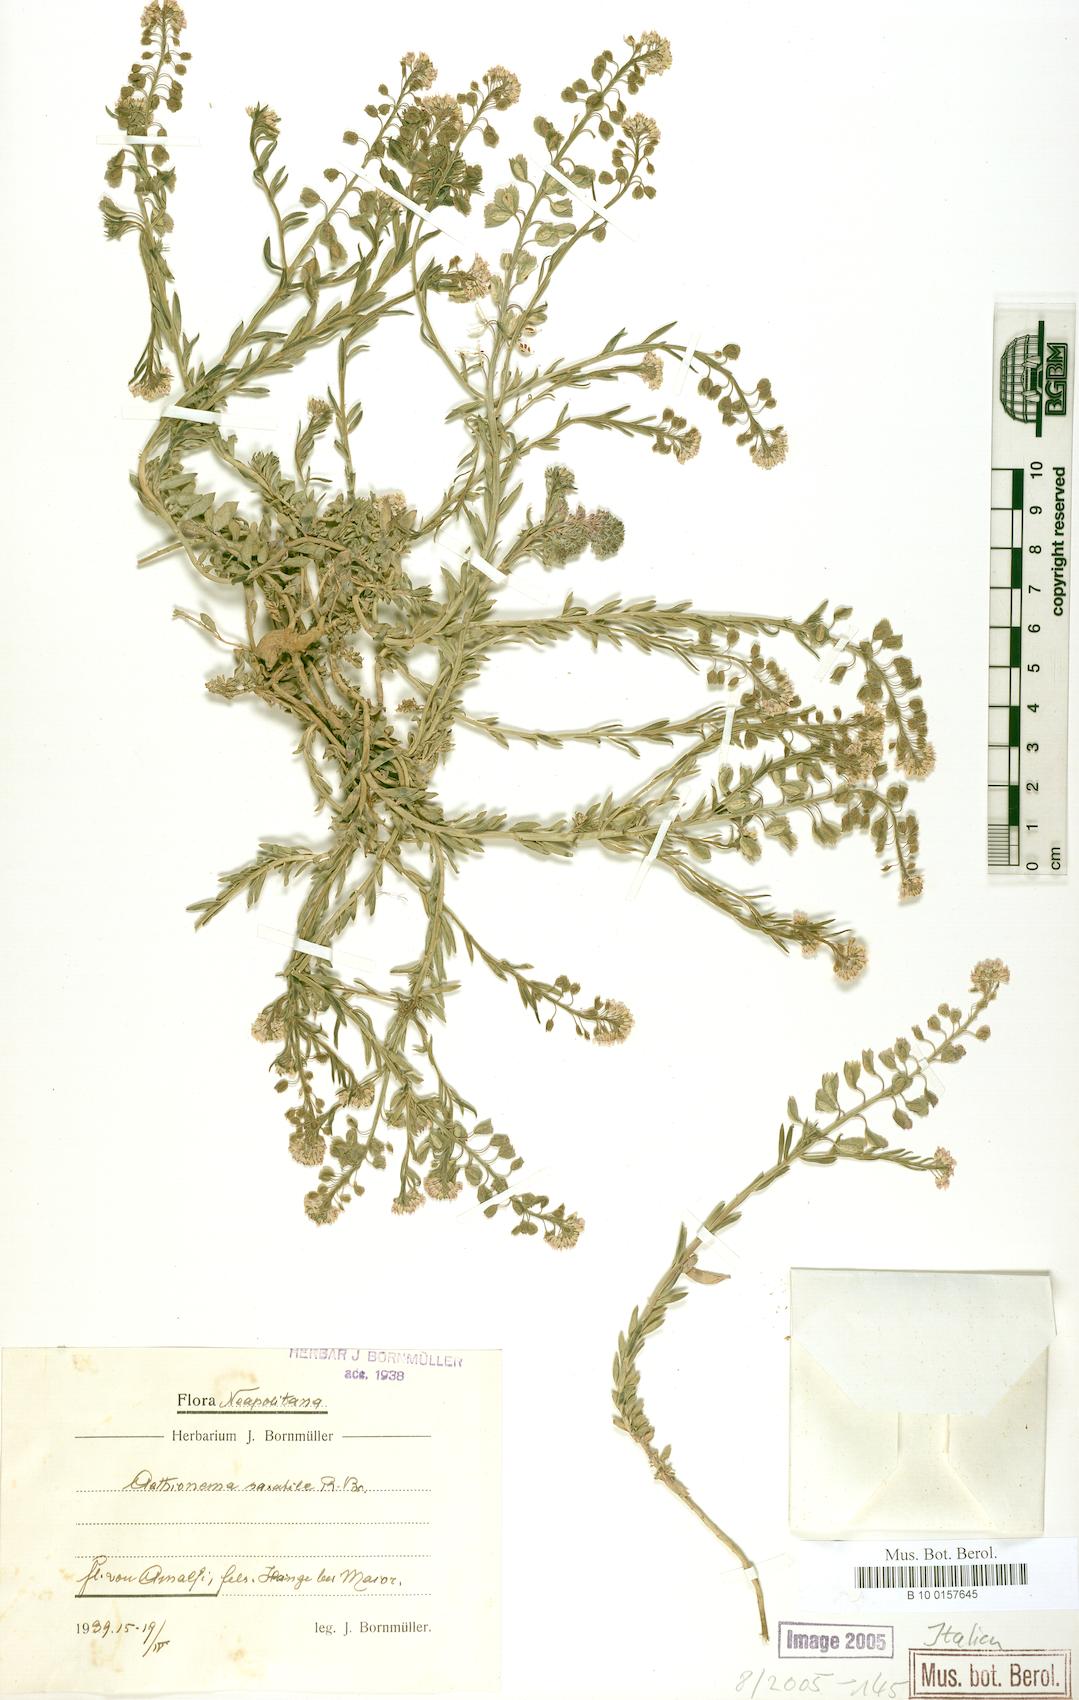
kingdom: Plantae
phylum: Tracheophyta
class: Magnoliopsida
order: Brassicales
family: Brassicaceae
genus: Aethionema
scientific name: Aethionema saxatile
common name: Burnt candytuft
